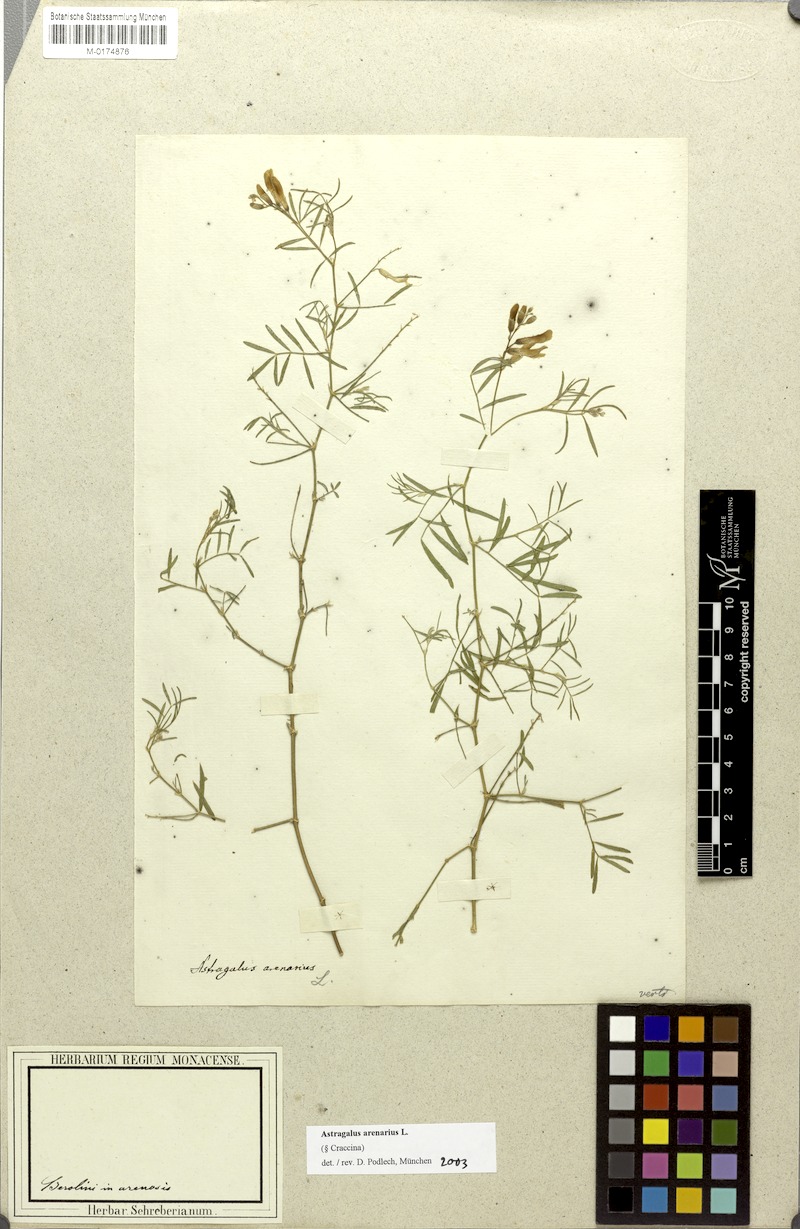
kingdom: Plantae
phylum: Tracheophyta
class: Magnoliopsida
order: Fabales
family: Fabaceae
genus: Astragalus
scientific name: Astragalus arenarius
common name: Arenarious milk-vetch
